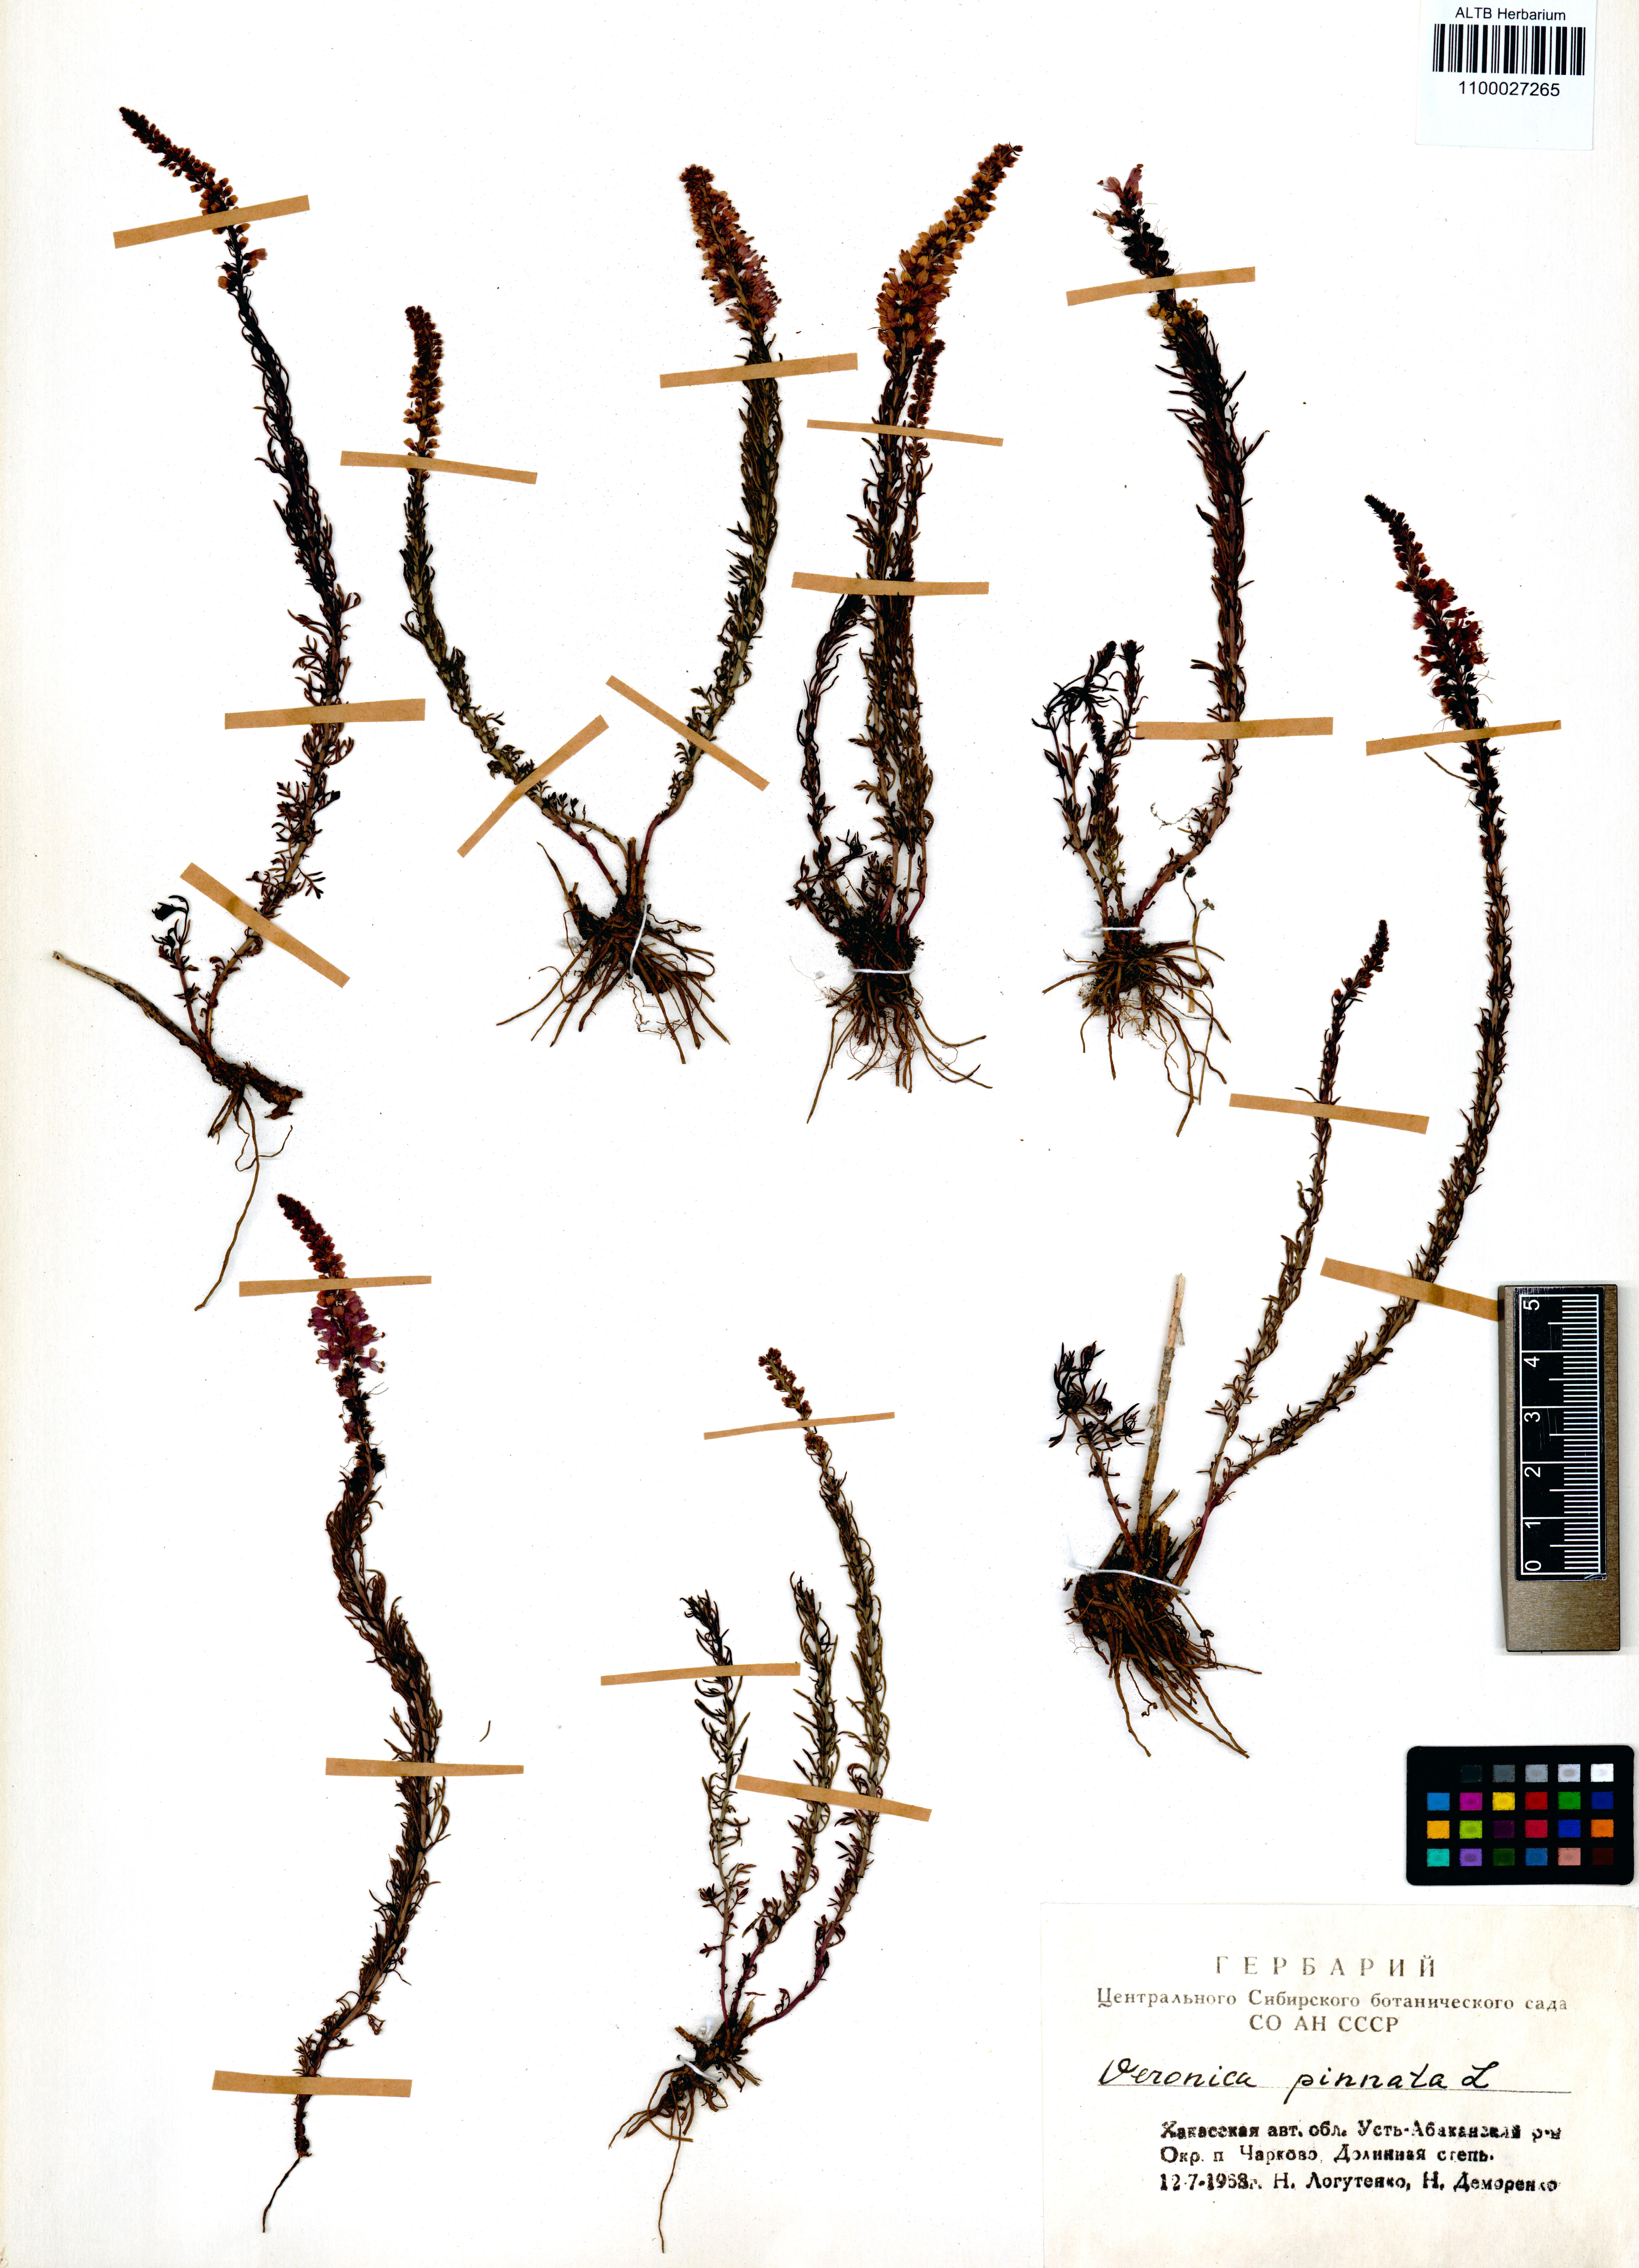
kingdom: Plantae
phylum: Tracheophyta
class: Magnoliopsida
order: Lamiales
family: Plantaginaceae
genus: Veronica
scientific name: Veronica pinnata
